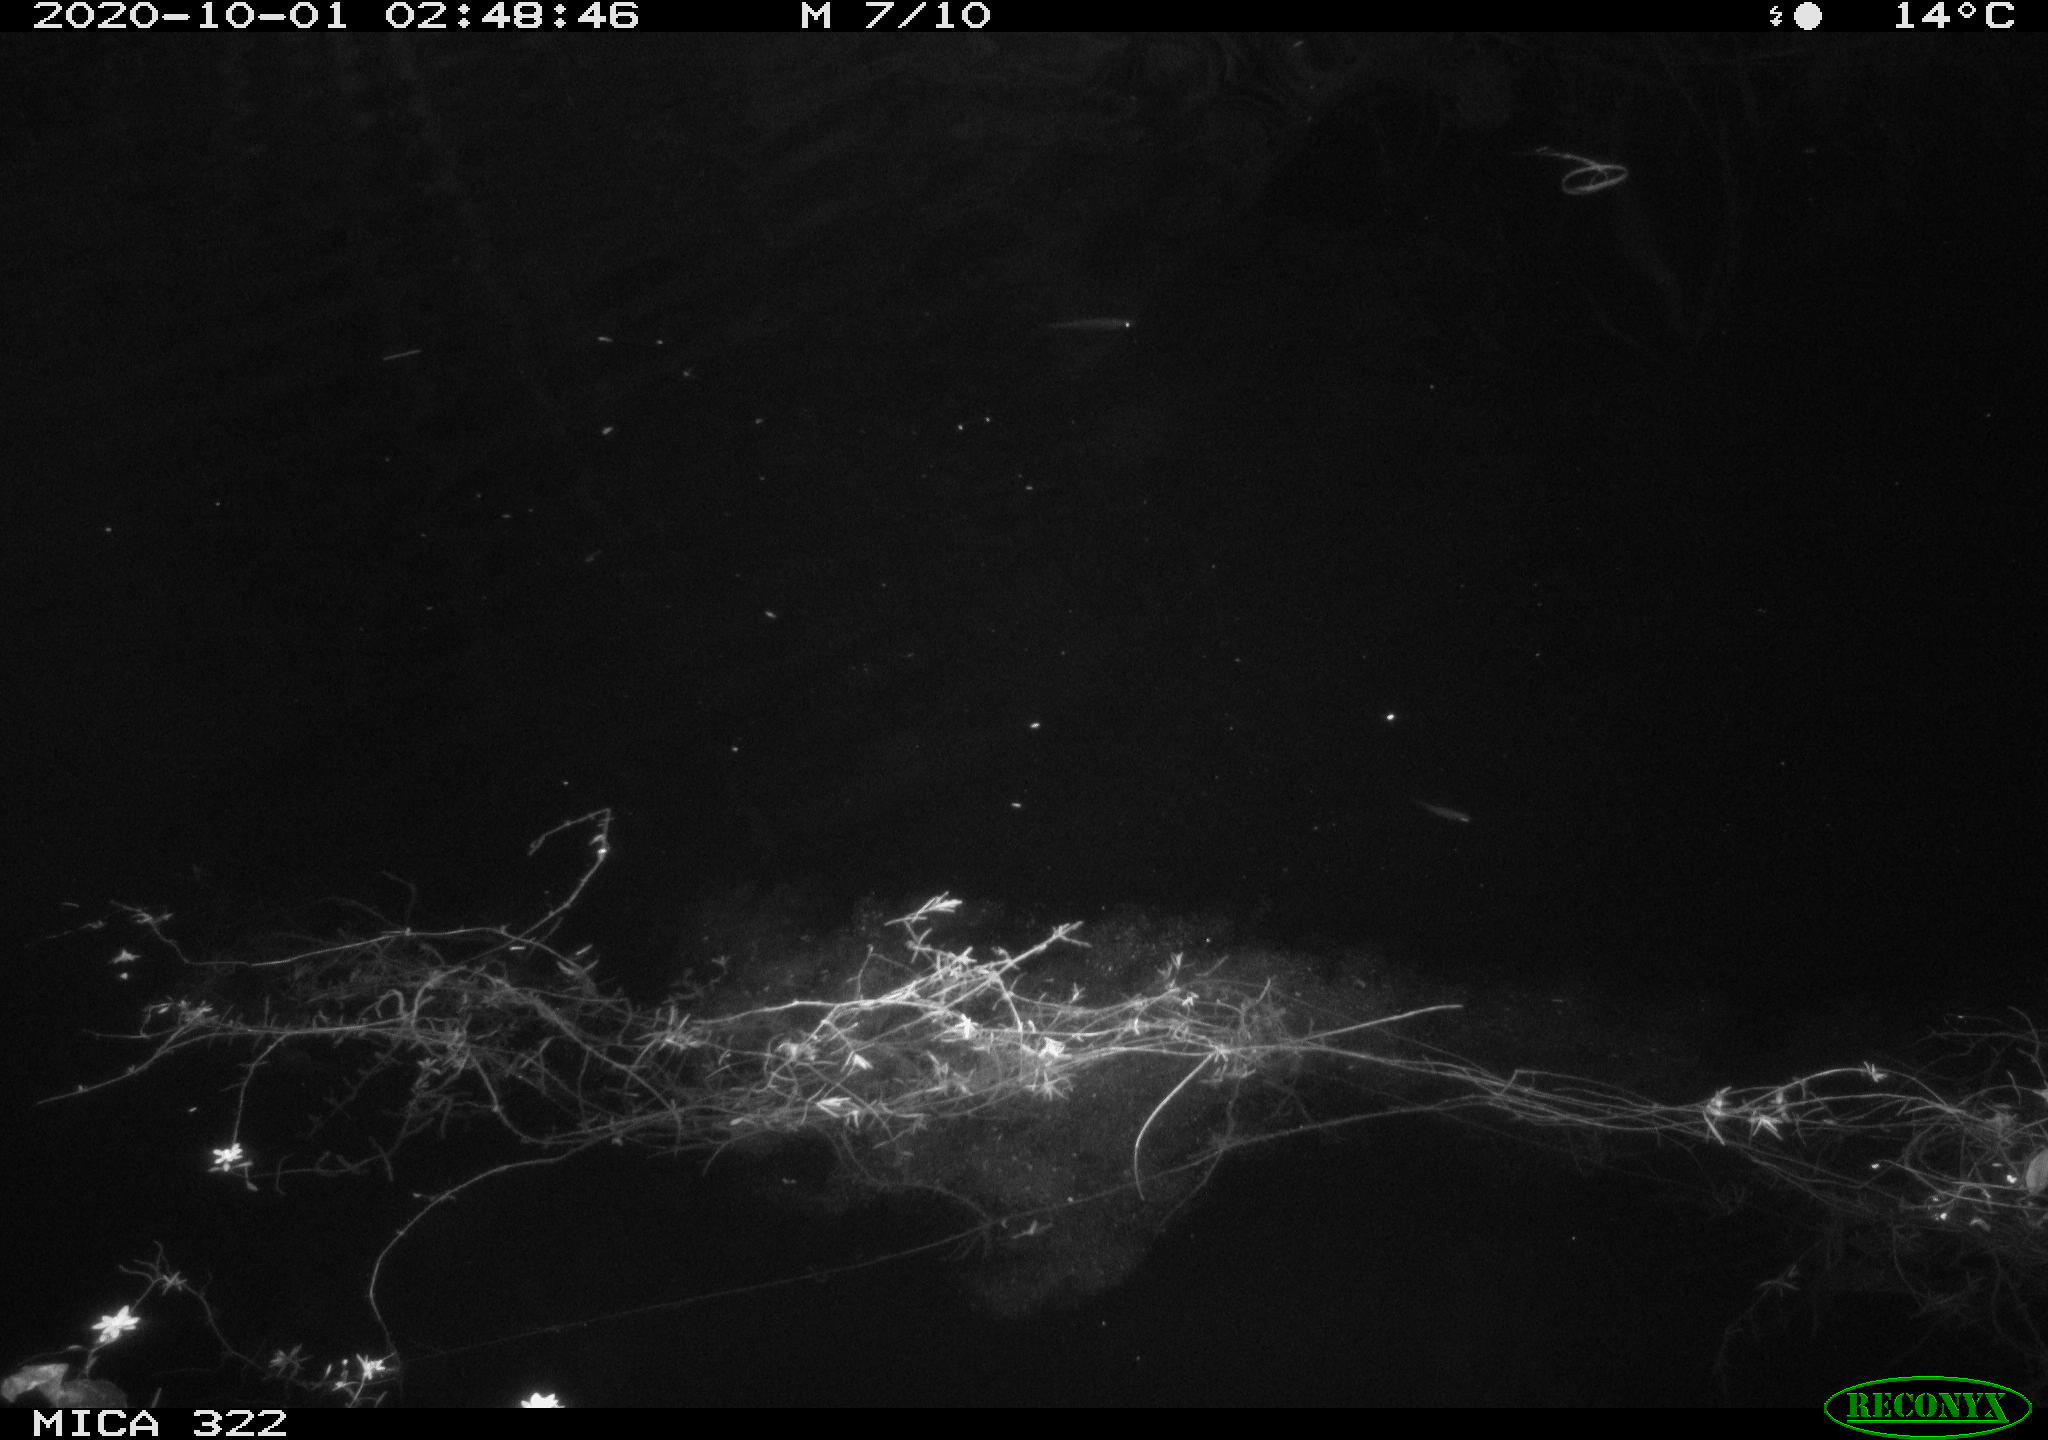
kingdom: Animalia
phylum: Chordata
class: Mammalia
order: Rodentia
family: Muridae
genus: Rattus
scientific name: Rattus norvegicus
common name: Brown rat
